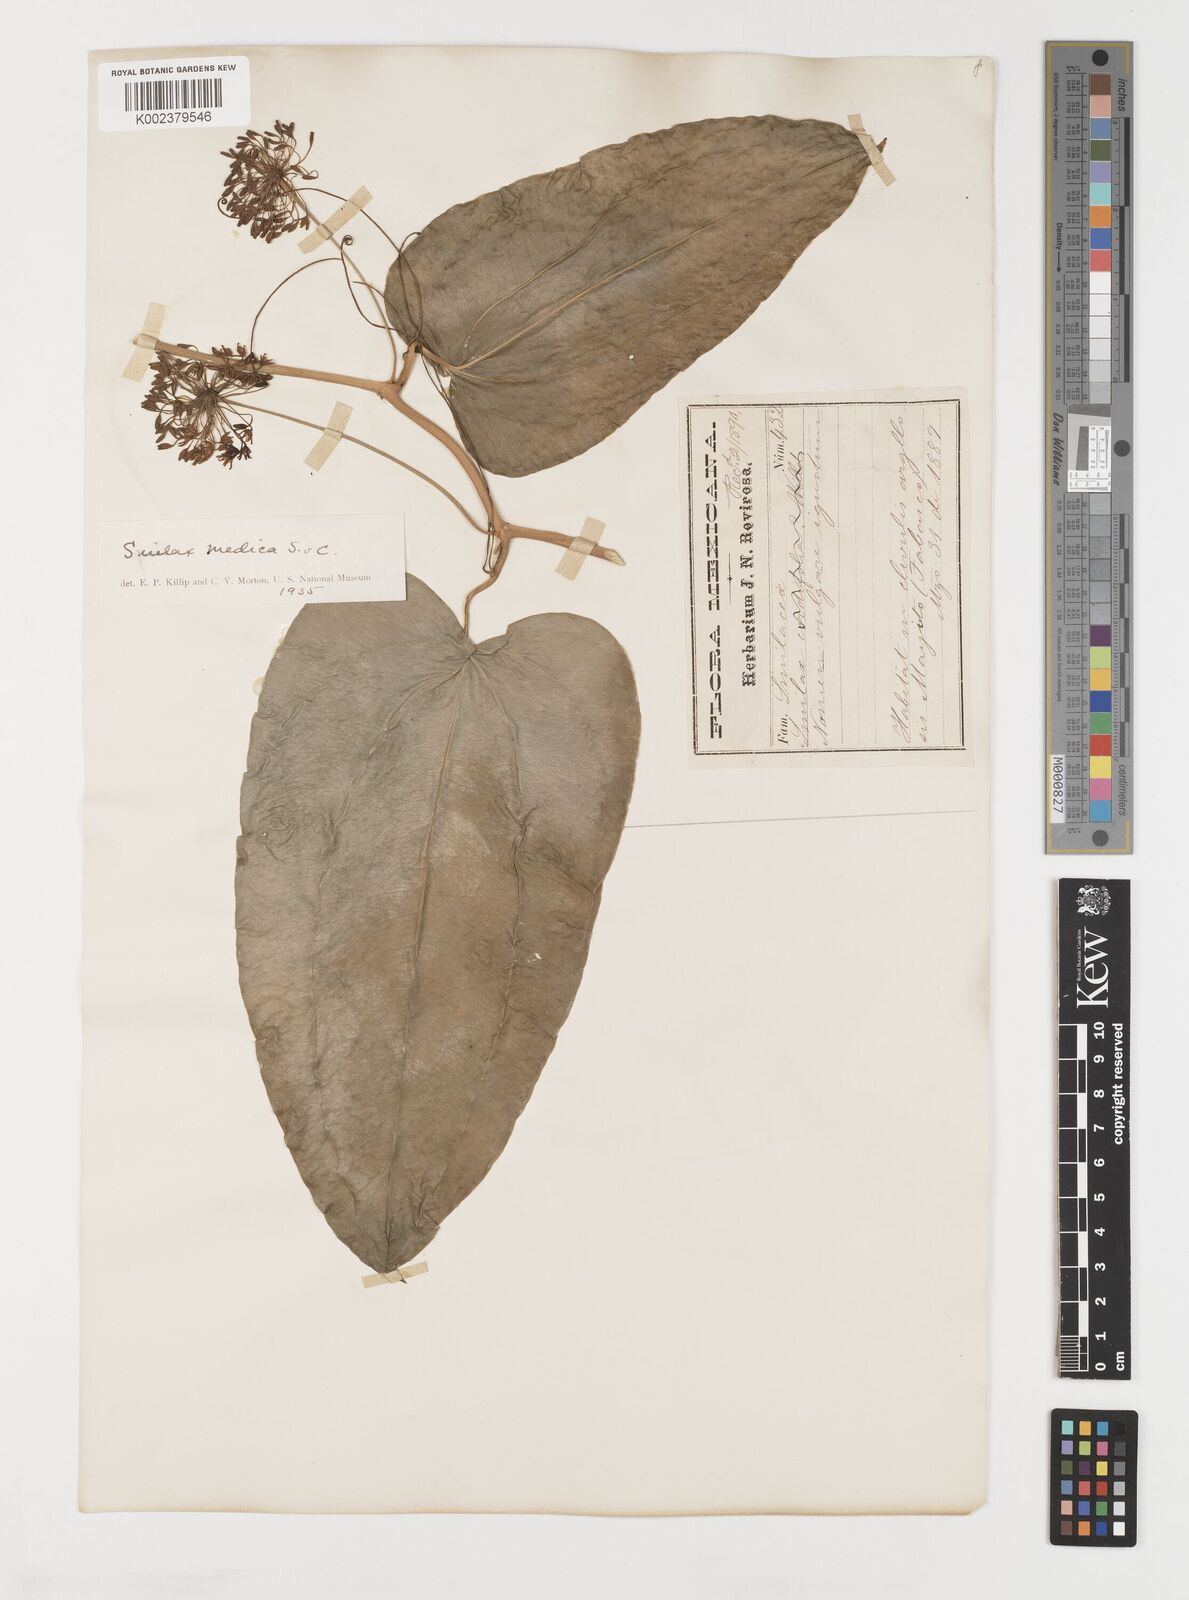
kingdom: Plantae
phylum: Tracheophyta
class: Liliopsida
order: Liliales
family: Smilacaceae
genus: Smilax
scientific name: Smilax aristolochiifolia
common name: Sarsaparilla
